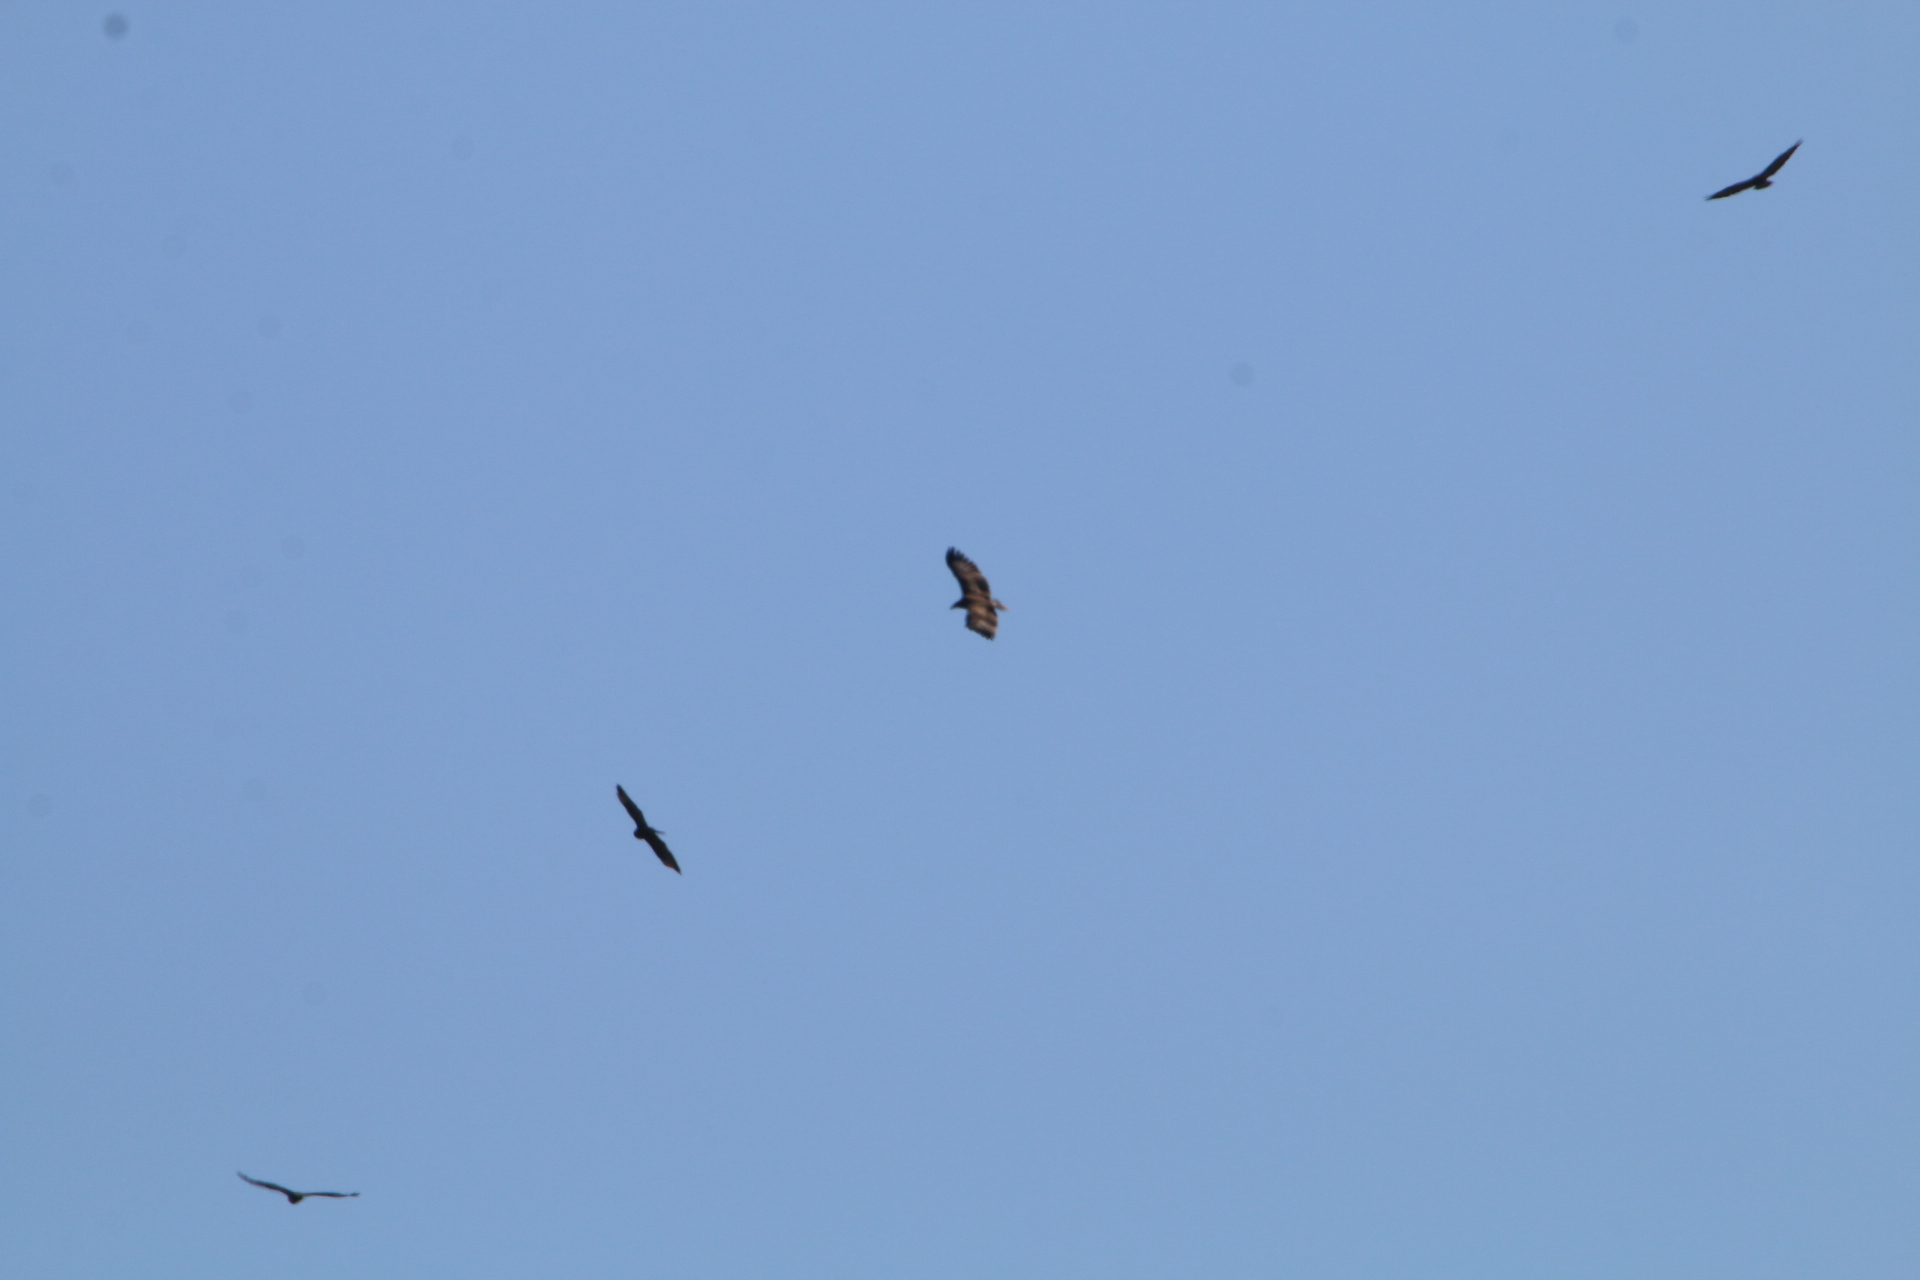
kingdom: Animalia
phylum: Chordata
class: Aves
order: Accipitriformes
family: Accipitridae
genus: Aquila
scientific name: Aquila clanga
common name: Stor skrigeørn
